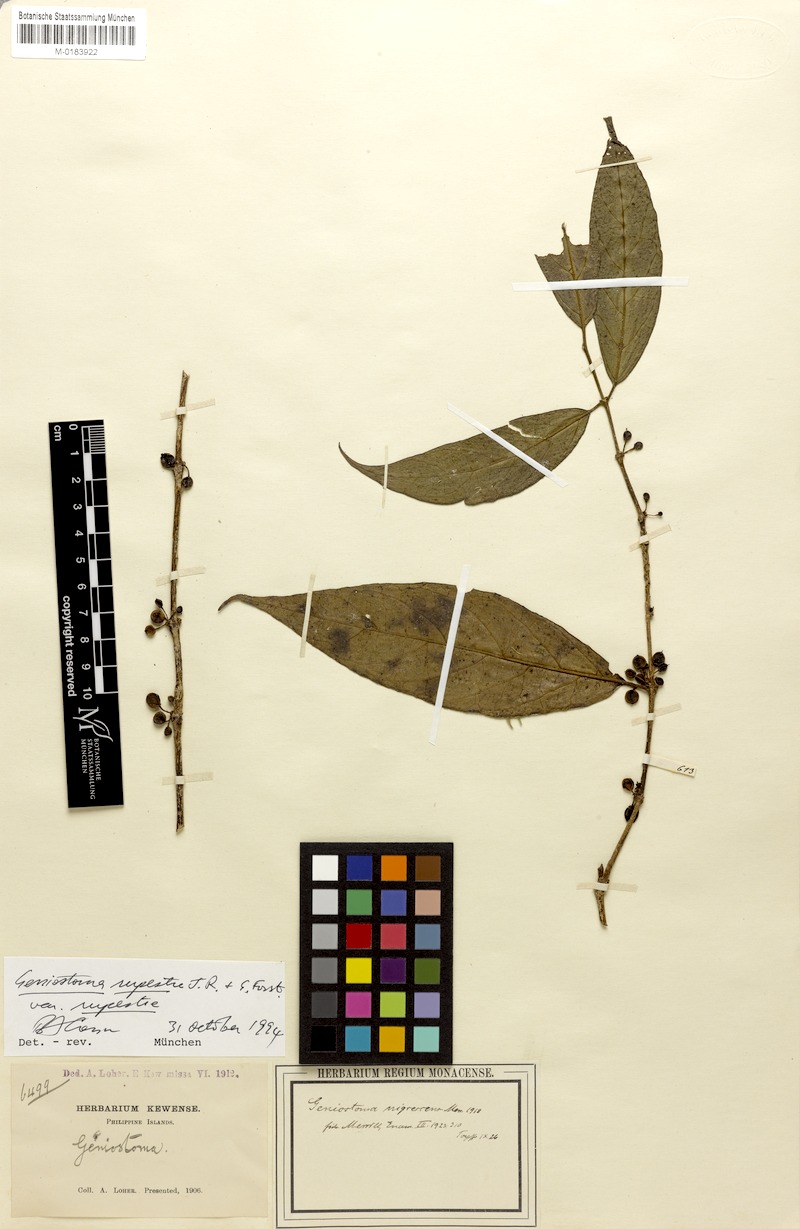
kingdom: Plantae
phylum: Tracheophyta
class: Magnoliopsida
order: Gentianales
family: Loganiaceae
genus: Geniostoma
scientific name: Geniostoma rupestre
